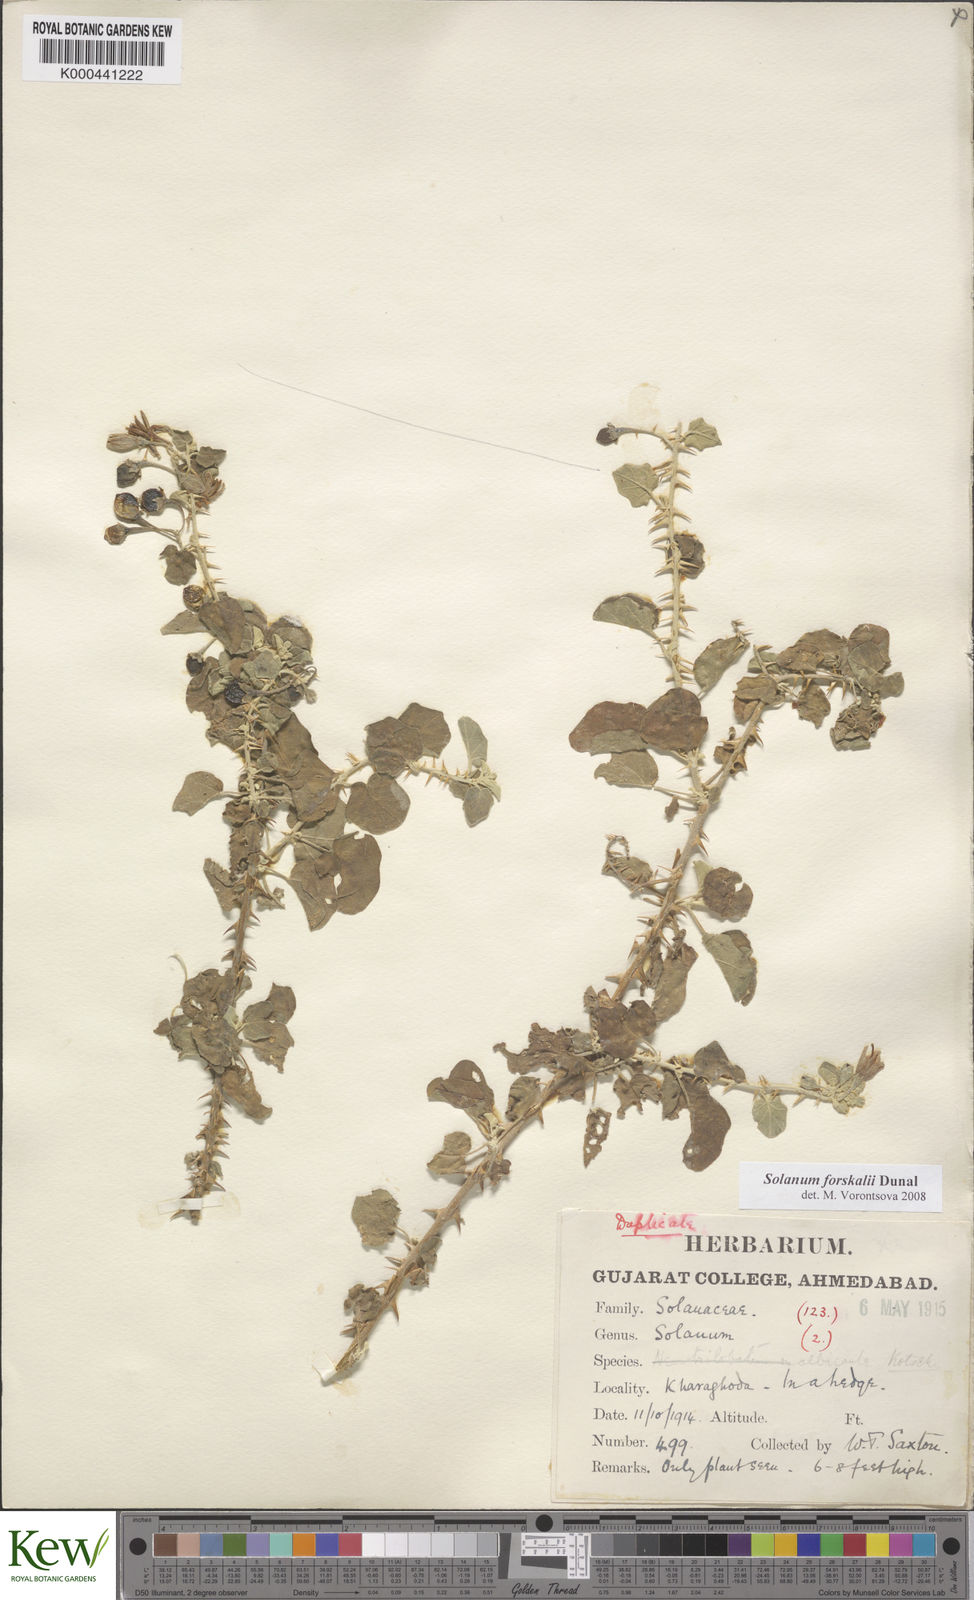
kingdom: Plantae
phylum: Tracheophyta
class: Magnoliopsida
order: Solanales
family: Solanaceae
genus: Solanum
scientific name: Solanum cordatum
